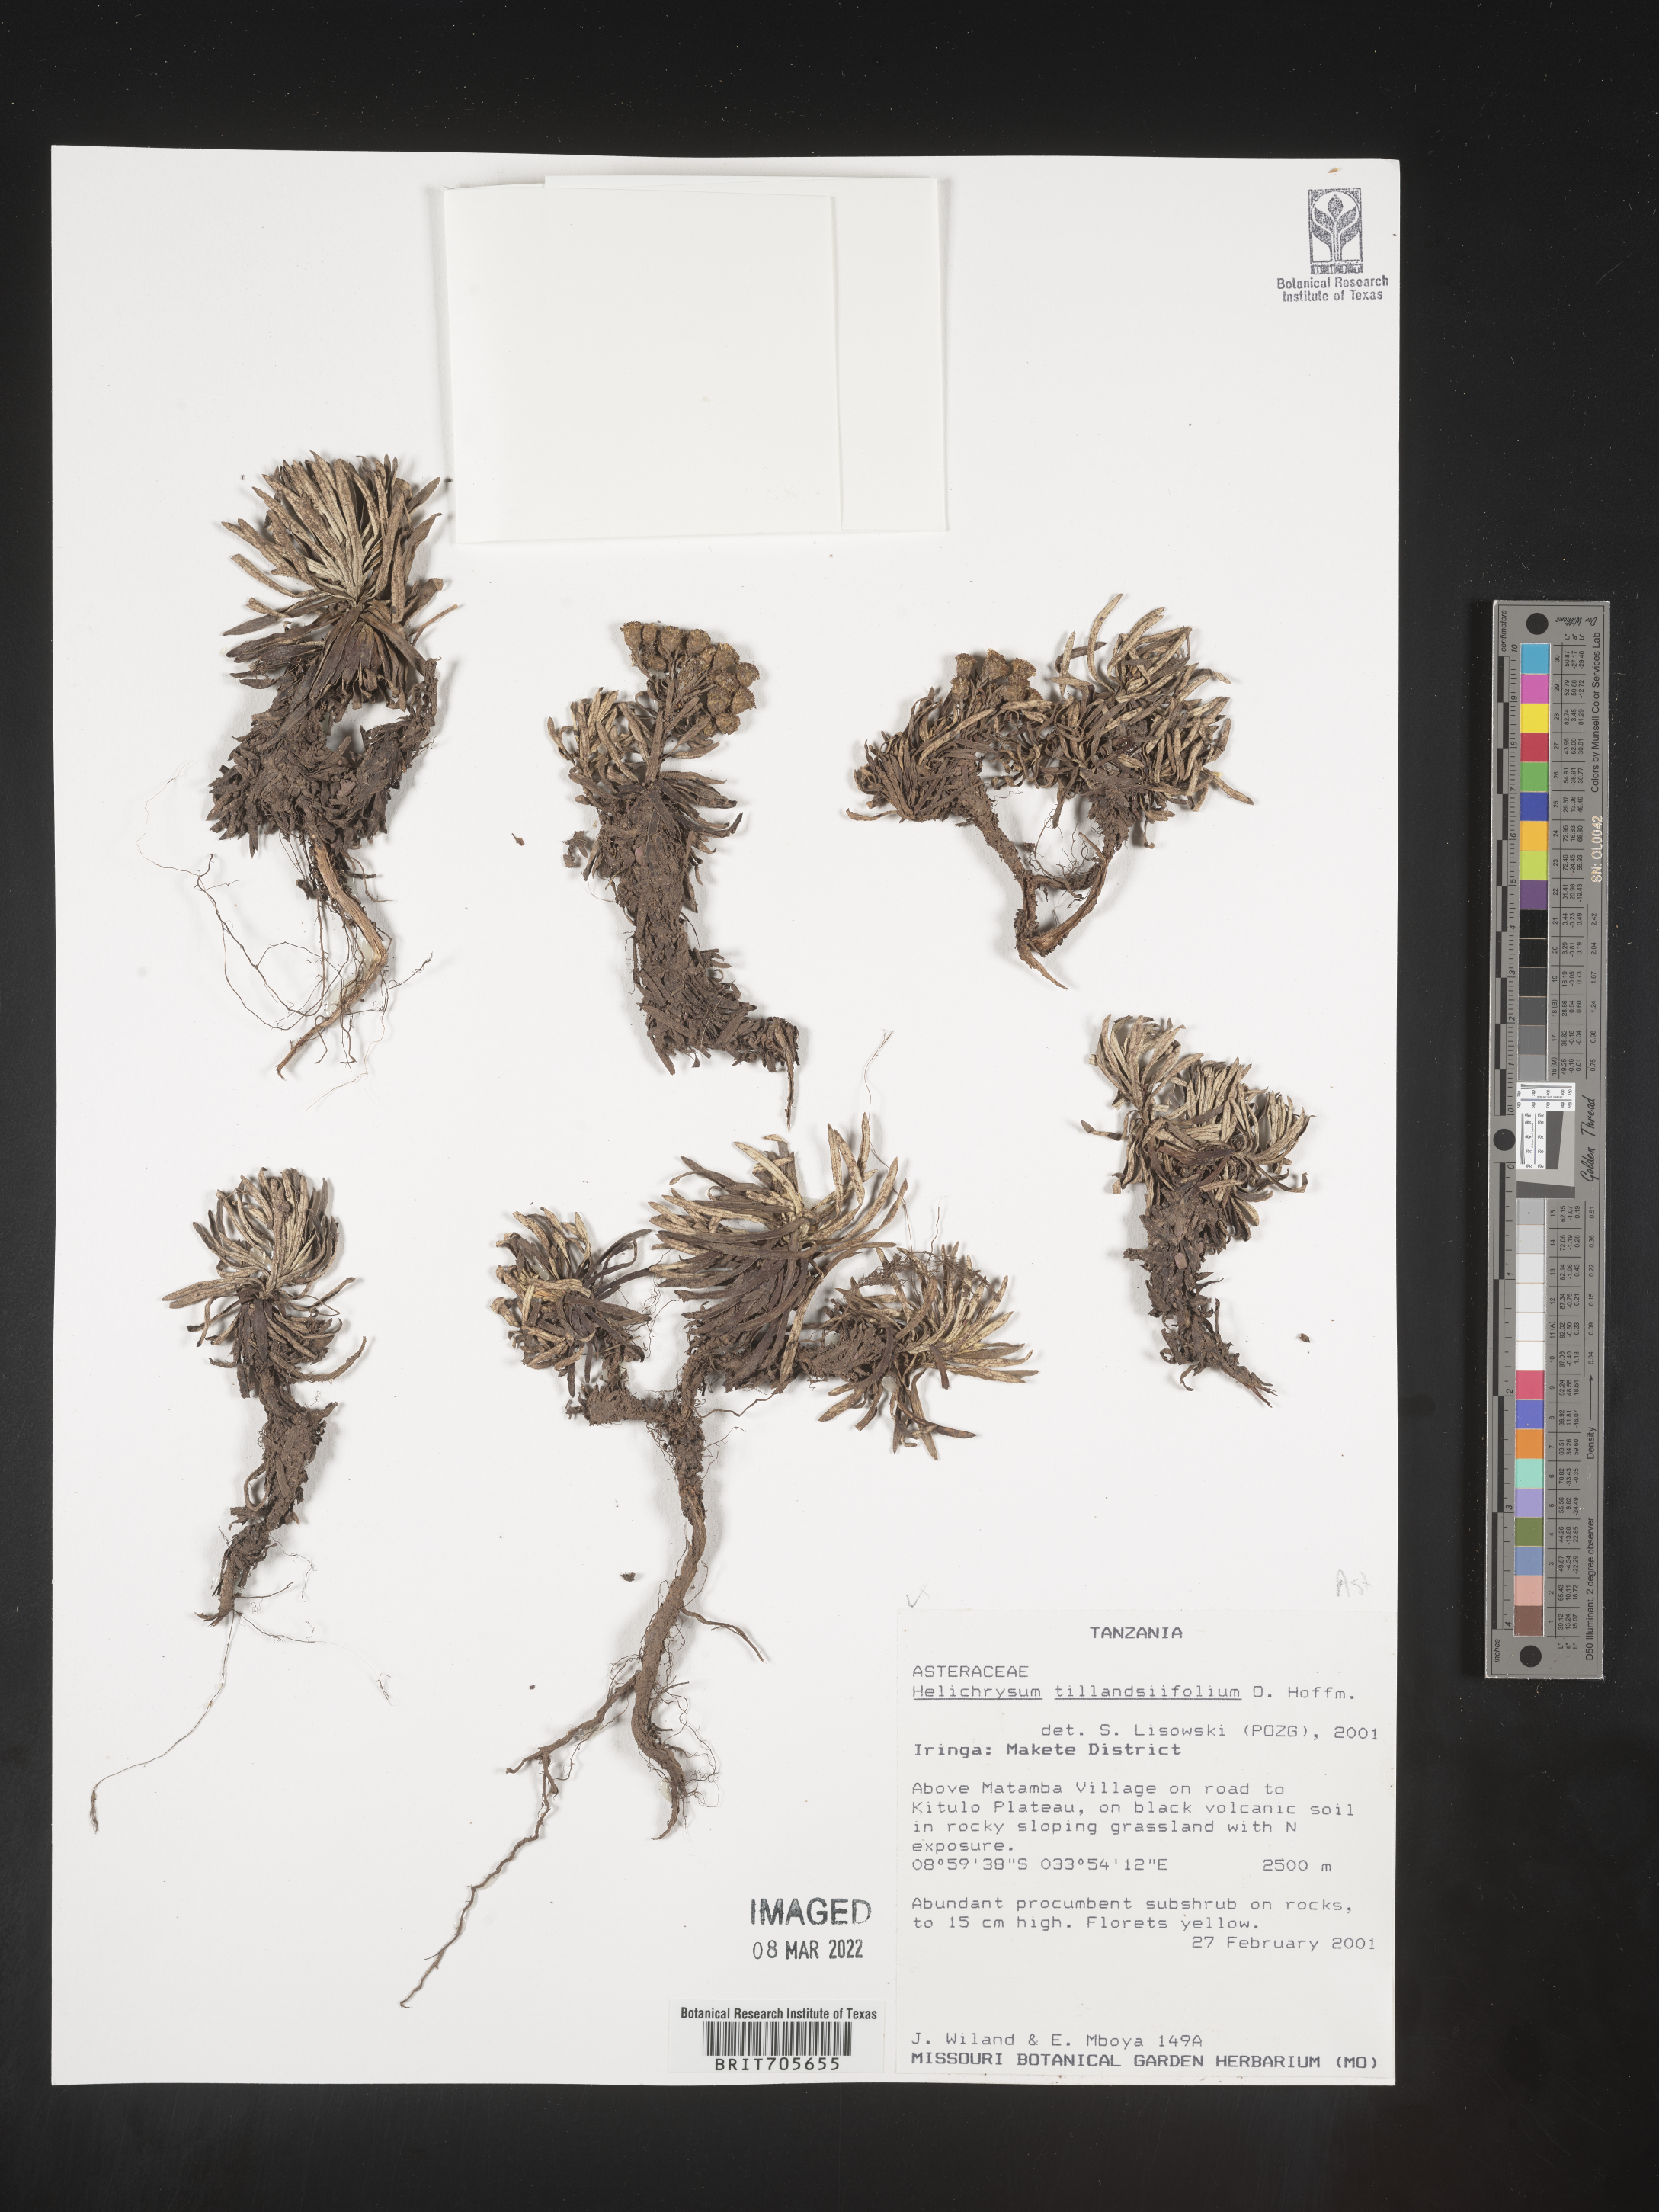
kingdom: Plantae
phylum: Tracheophyta
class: Magnoliopsida
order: Asterales
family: Asteraceae
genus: Helichrysum
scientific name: Helichrysum
